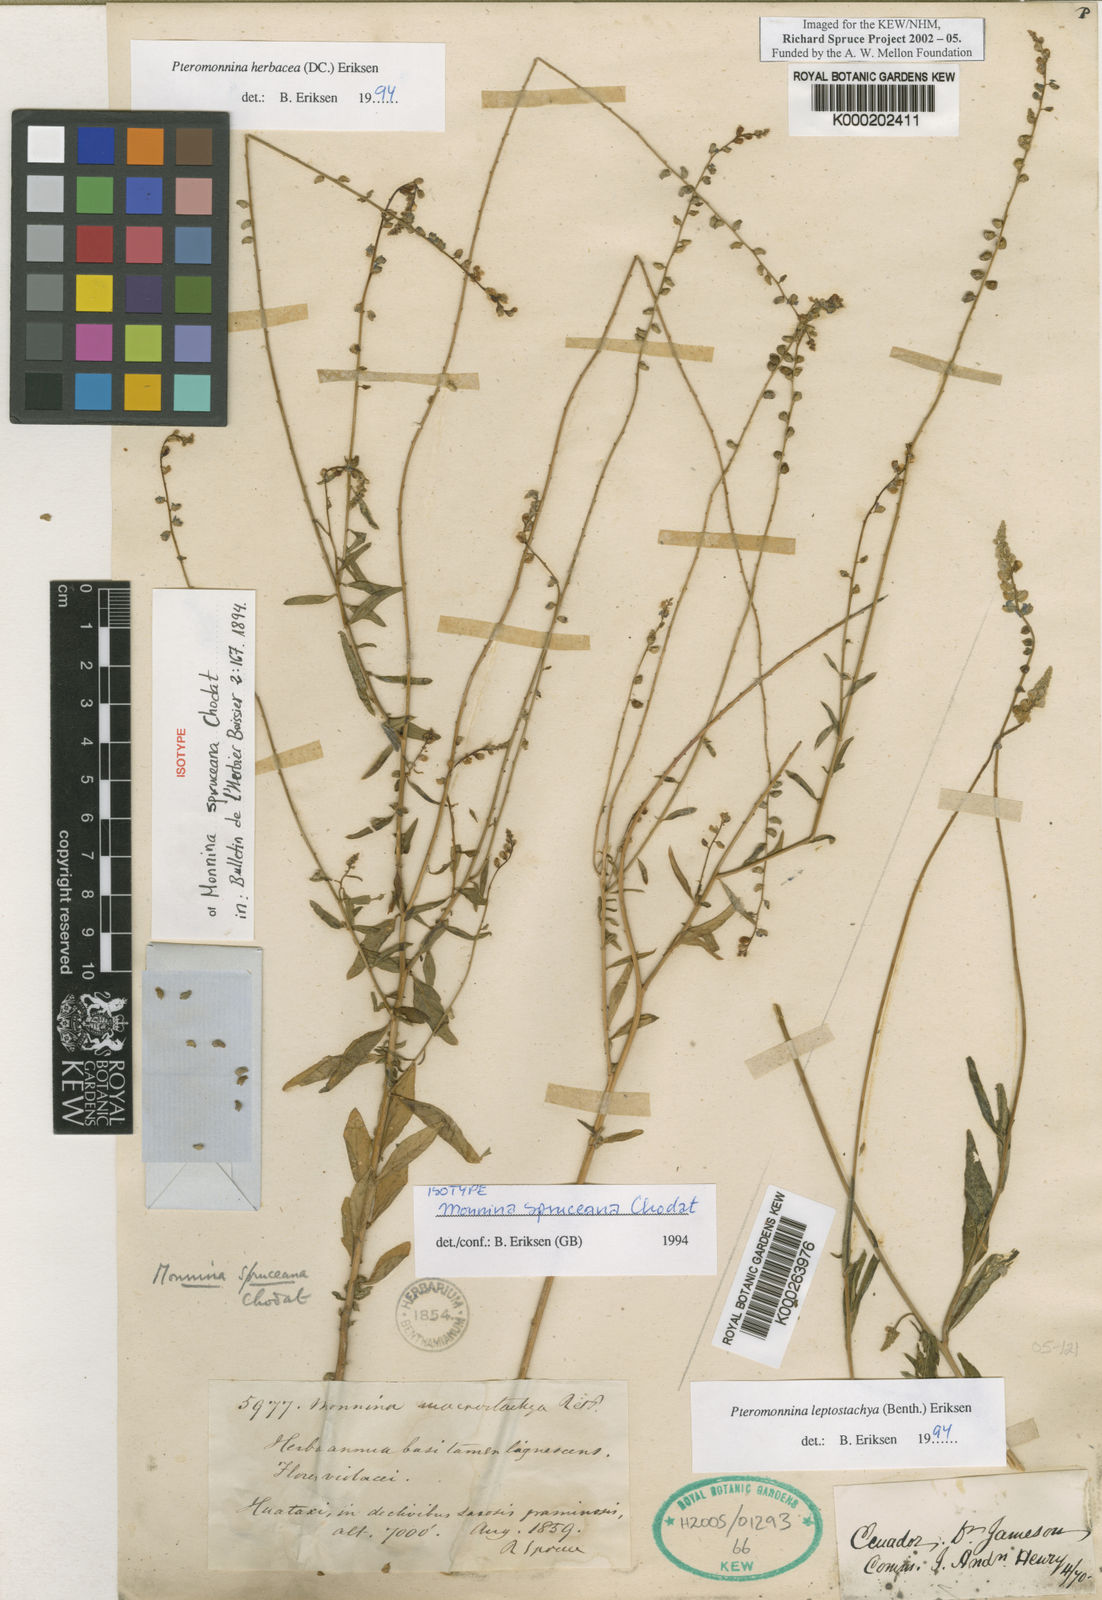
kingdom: Plantae
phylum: Tracheophyta
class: Magnoliopsida
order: Fabales
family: Polygalaceae
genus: Monnina
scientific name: Monnina leptostachya
